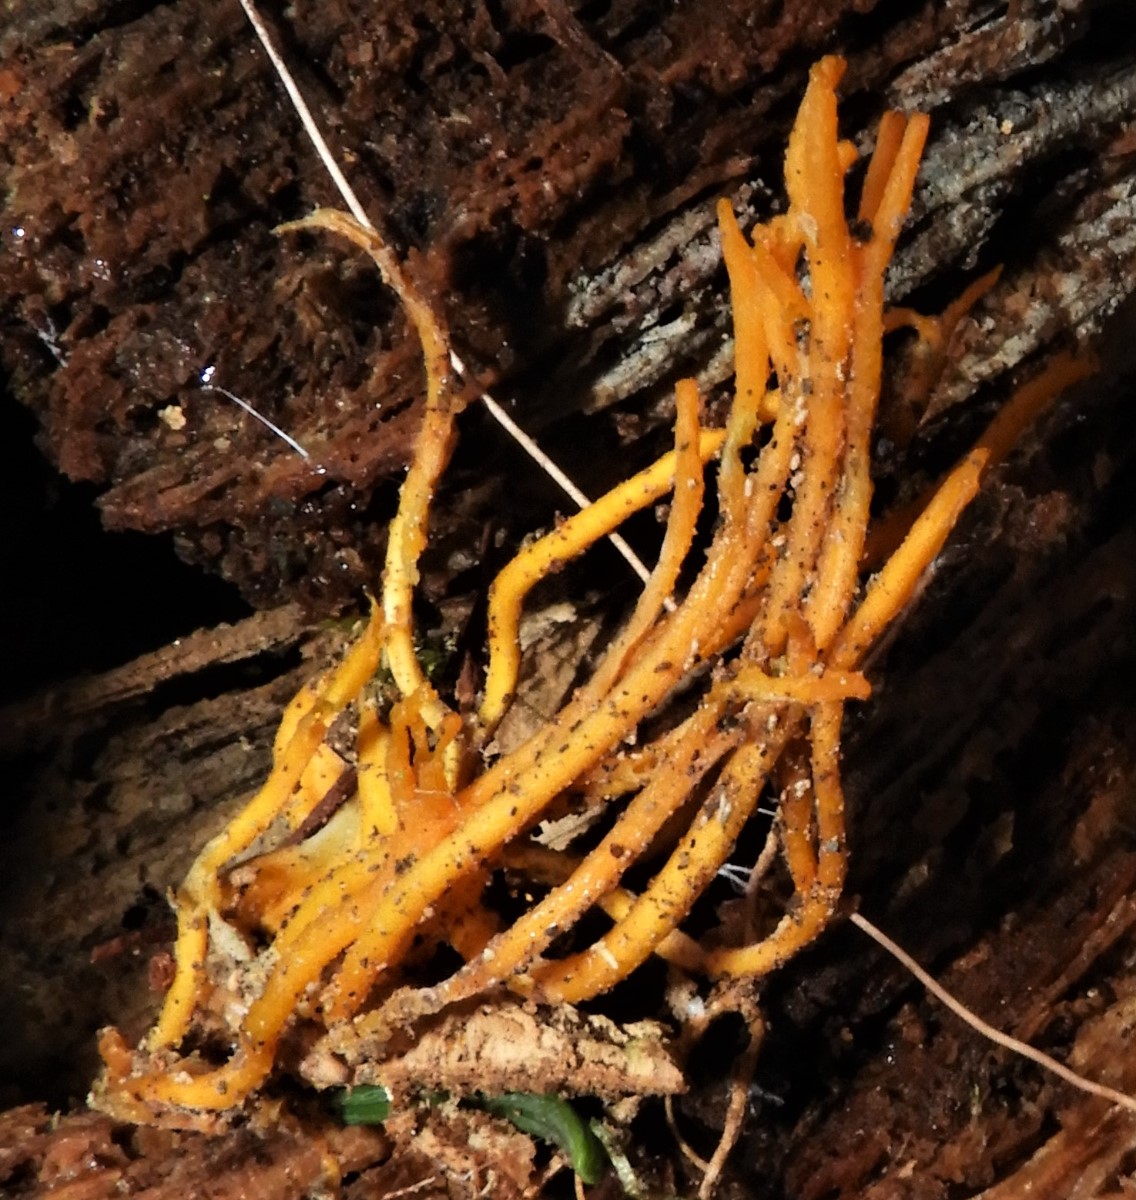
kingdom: Fungi
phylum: Basidiomycota
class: Dacrymycetes
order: Dacrymycetales
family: Dacrymycetaceae
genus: Calocera
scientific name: Calocera viscosa
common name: almindelig guldgaffel
